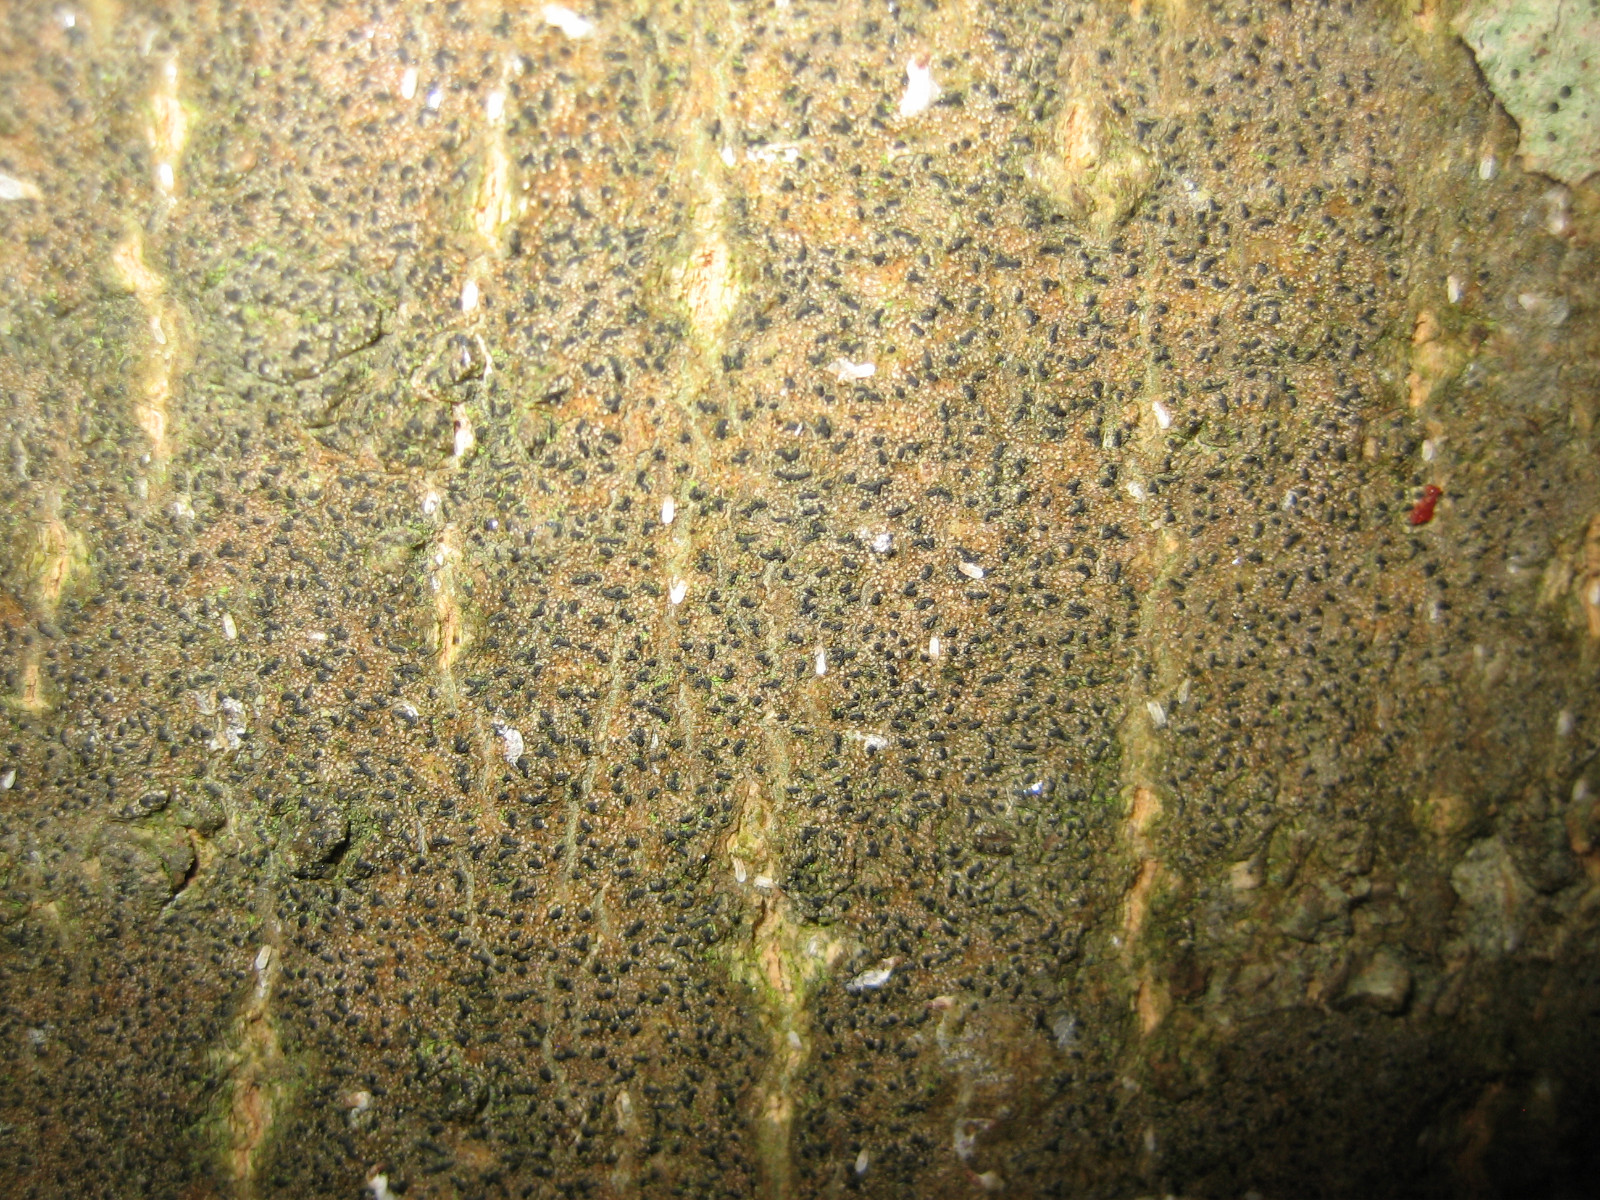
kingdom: Fungi
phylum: Ascomycota
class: Arthoniomycetes
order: Arthoniales
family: Roccellaceae
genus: Pseudoschismatomma
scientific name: Pseudoschismatomma rufescens
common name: brun bogstavlav
